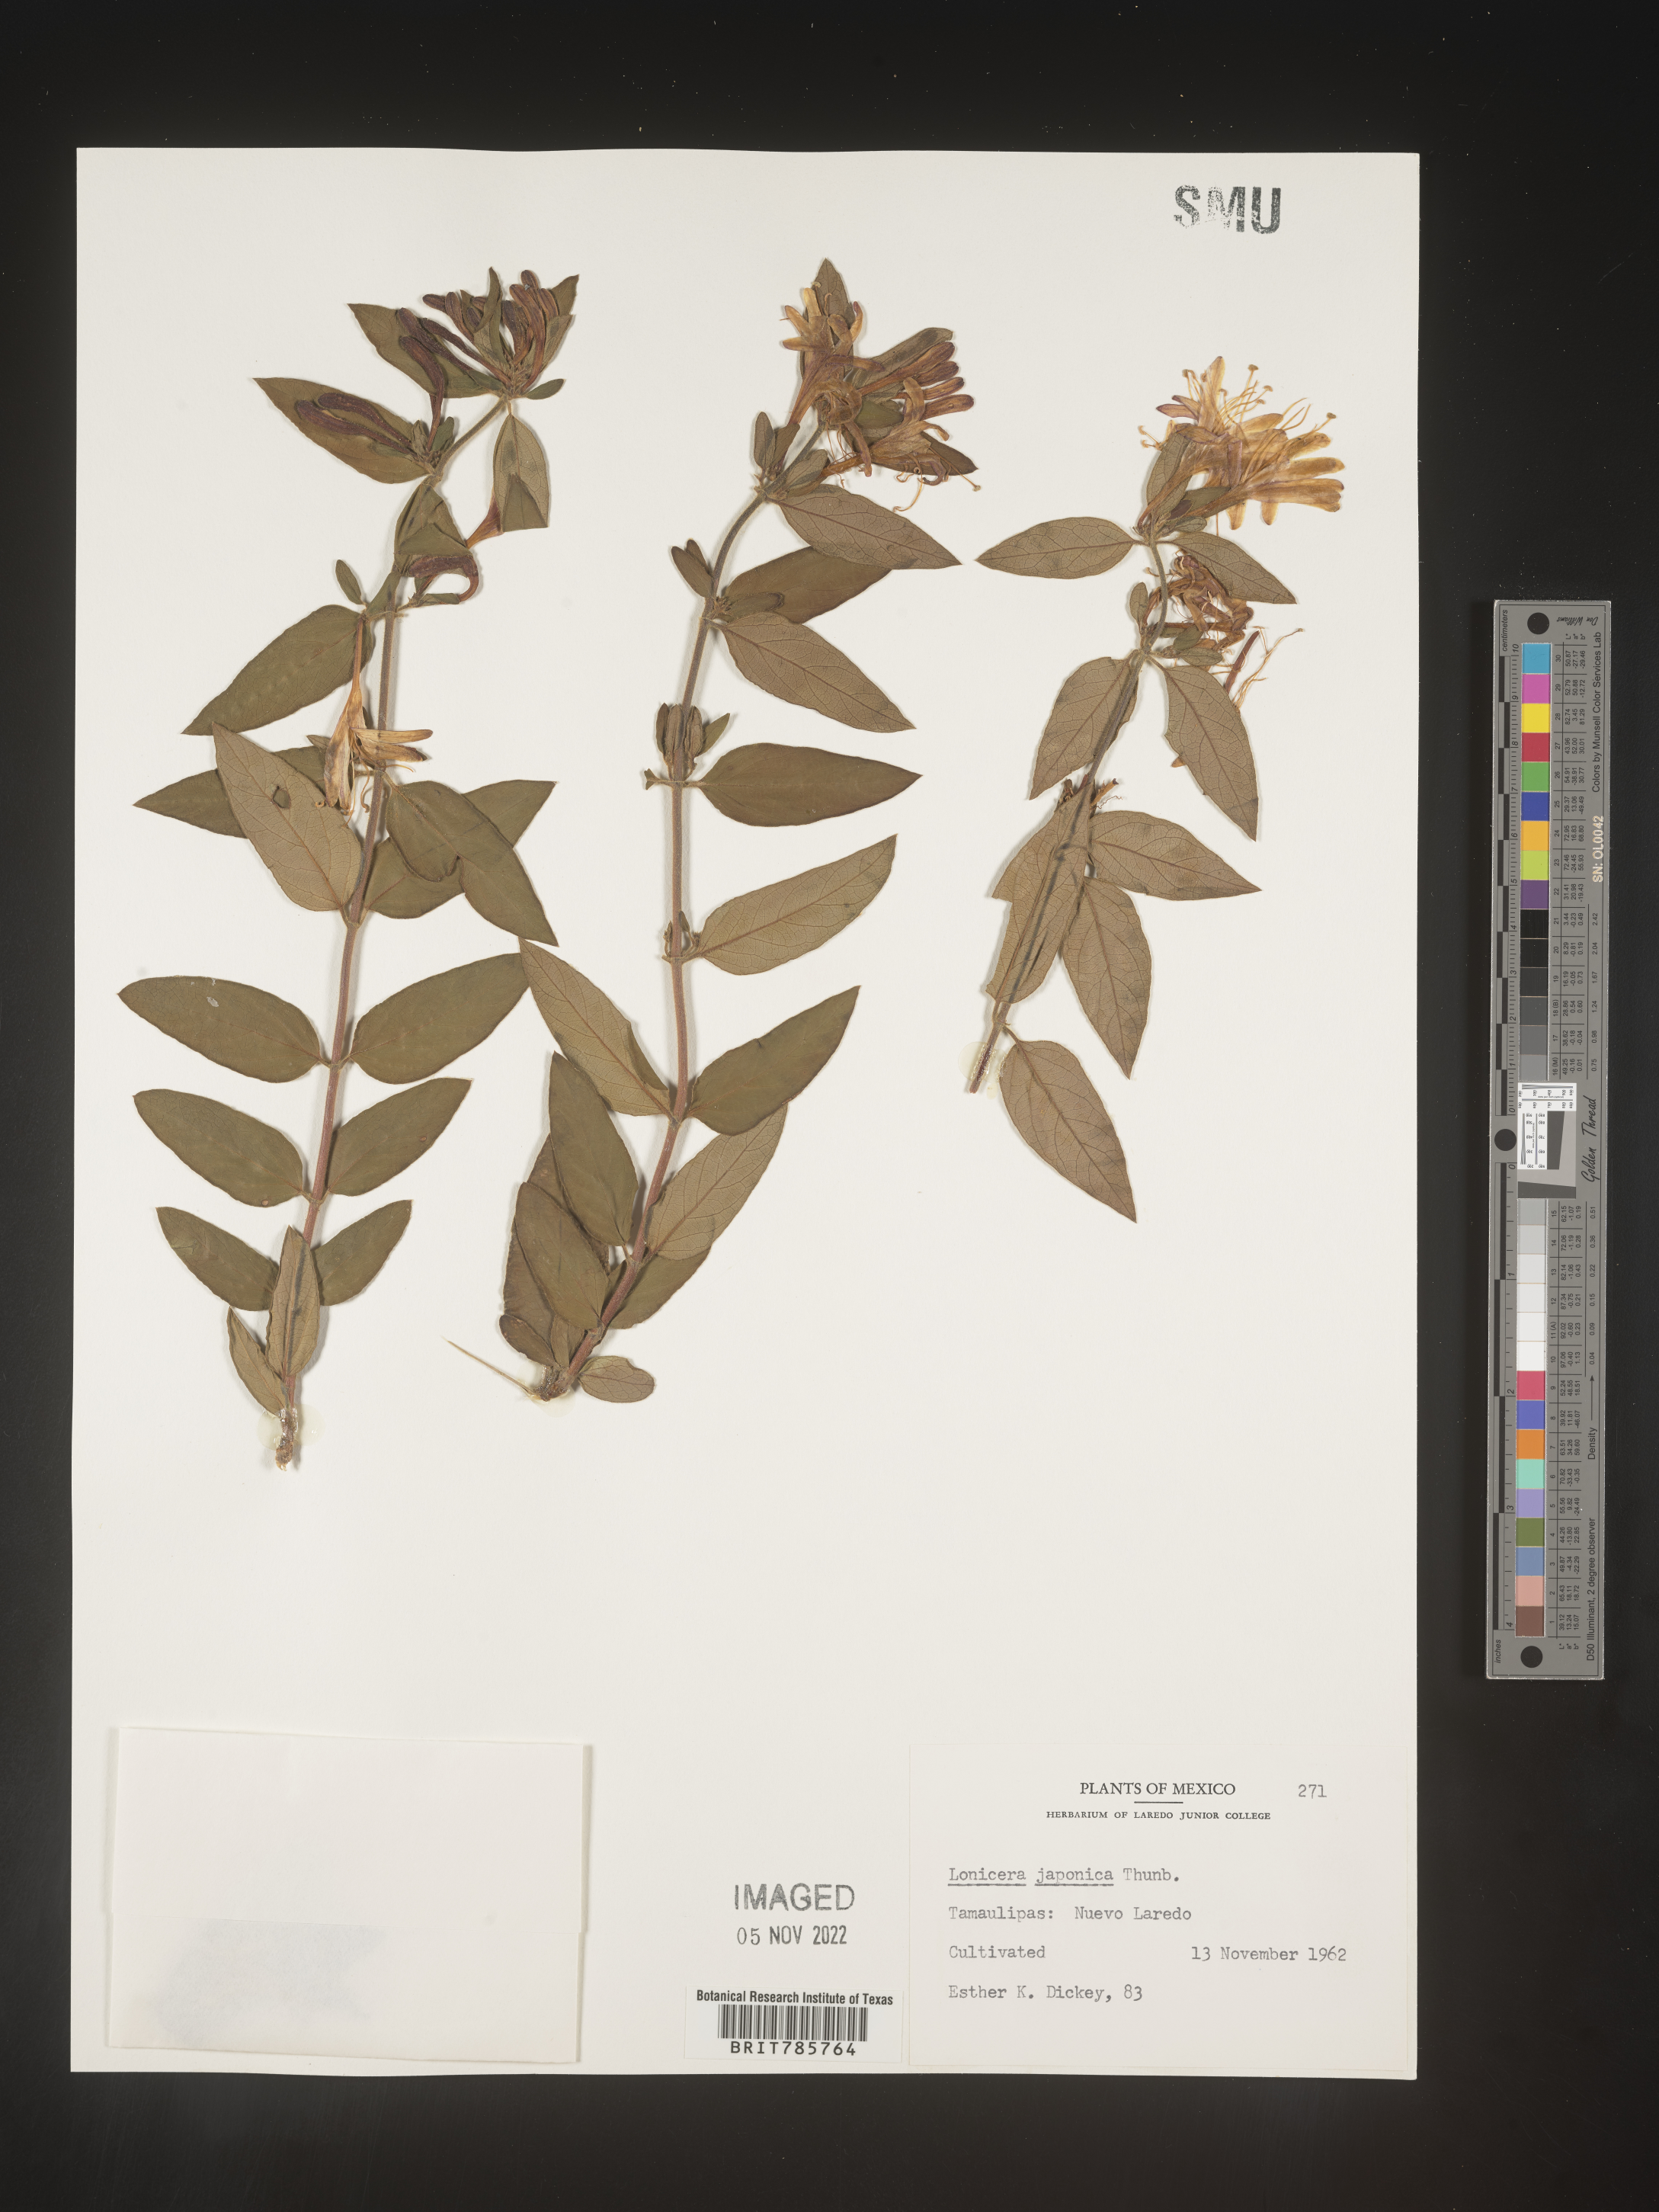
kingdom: Plantae
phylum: Tracheophyta
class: Magnoliopsida
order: Dipsacales
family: Caprifoliaceae
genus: Lonicera
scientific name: Lonicera
